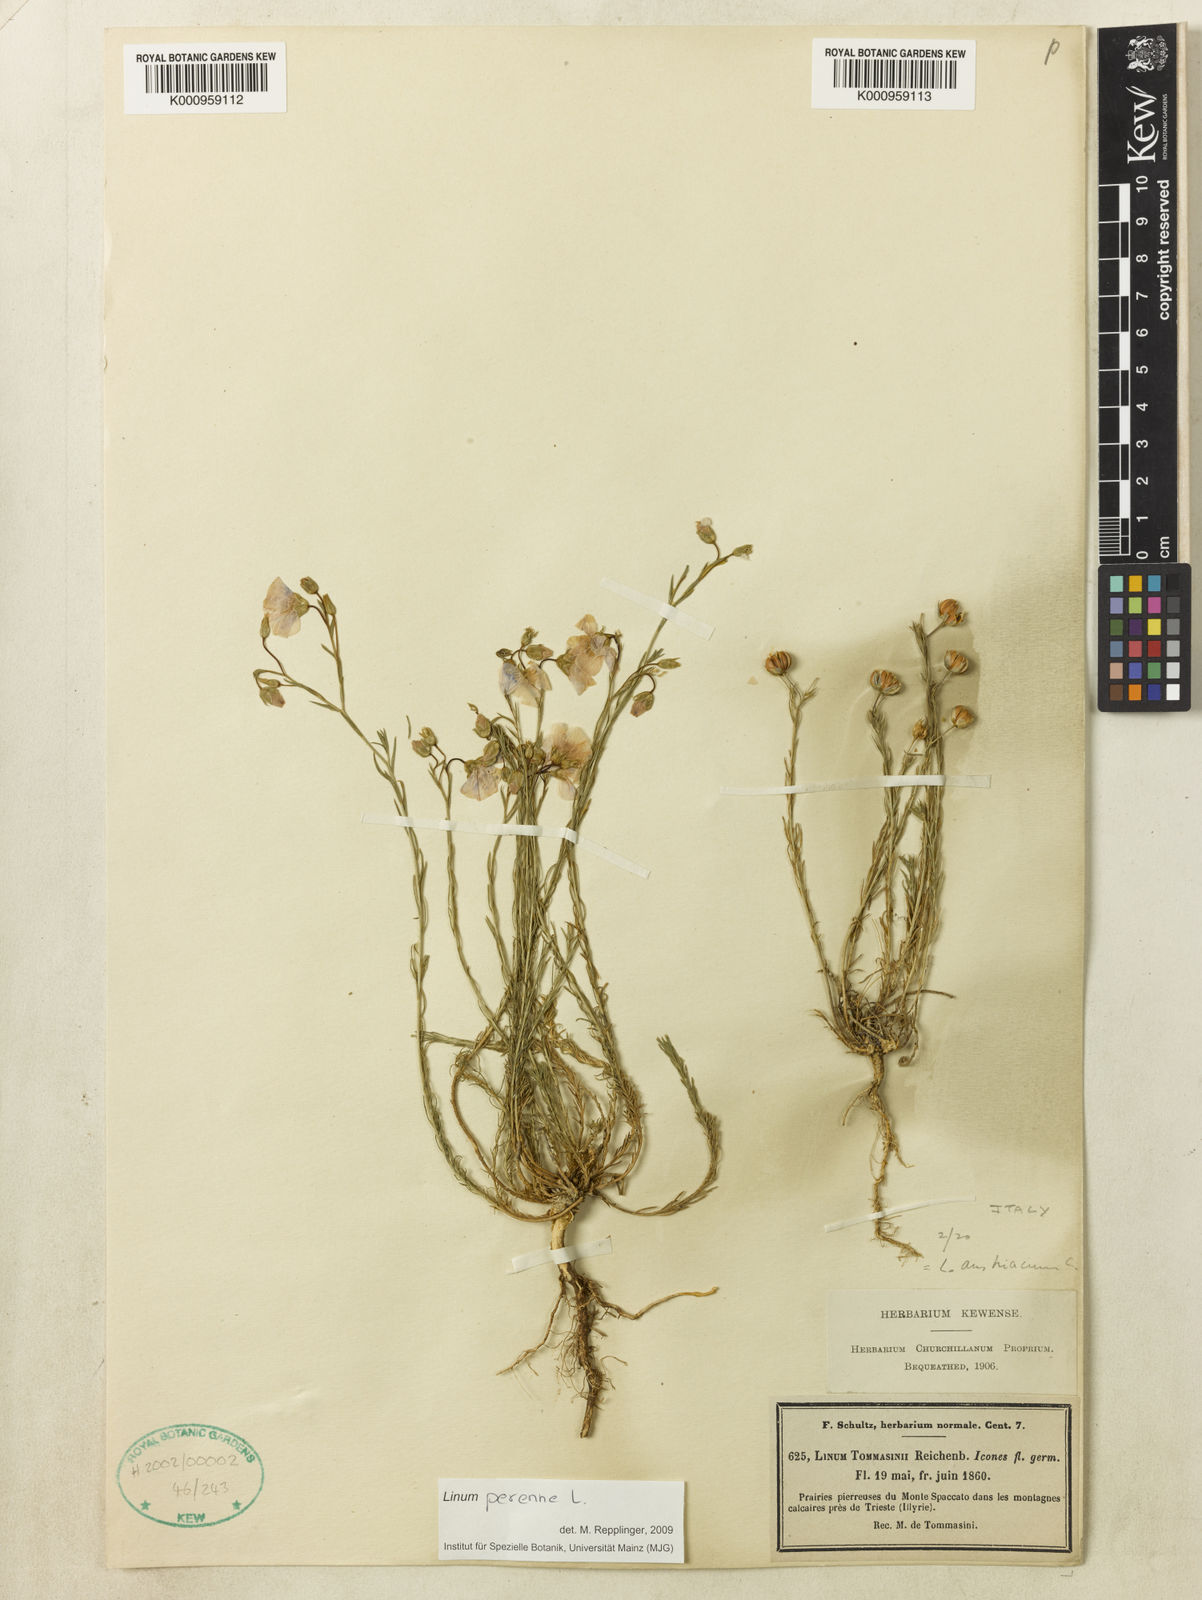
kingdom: Plantae
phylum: Tracheophyta
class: Magnoliopsida
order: Malpighiales
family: Linaceae
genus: Linum
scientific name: Linum austriacum
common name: Austrian flax
